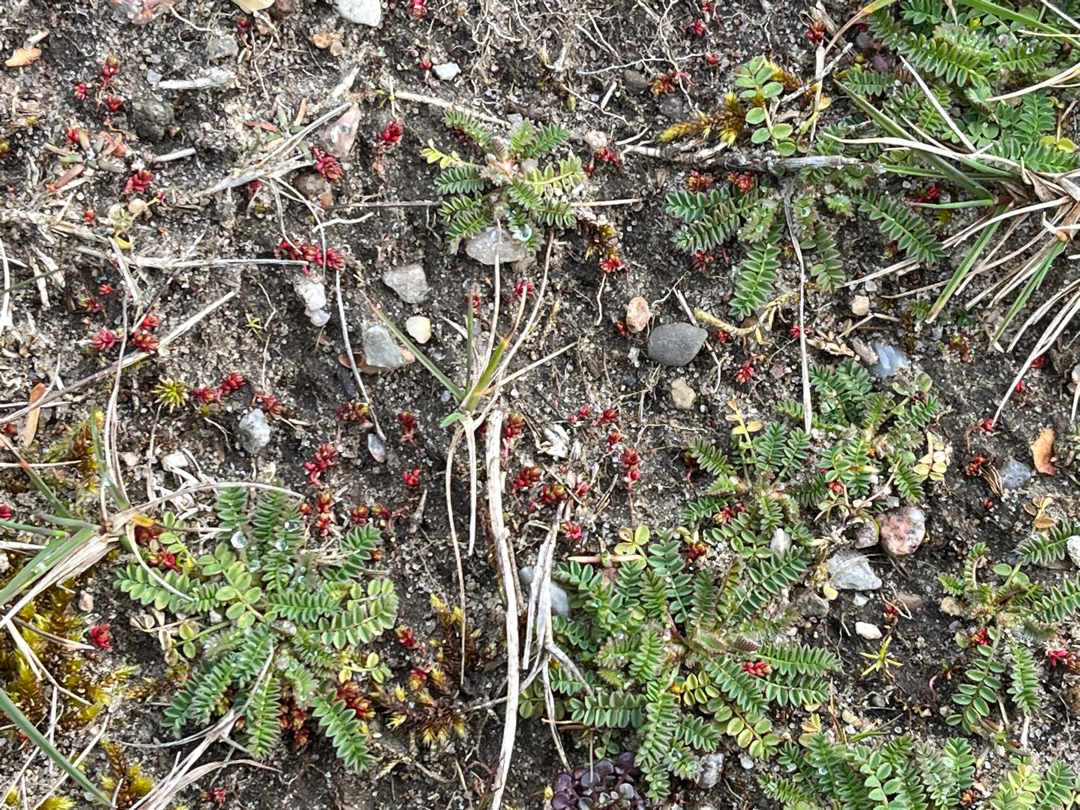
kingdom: Plantae
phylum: Tracheophyta
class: Magnoliopsida
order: Fabales
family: Fabaceae
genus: Ornithopus
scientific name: Ornithopus perpusillus
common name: Liden fugleklo
